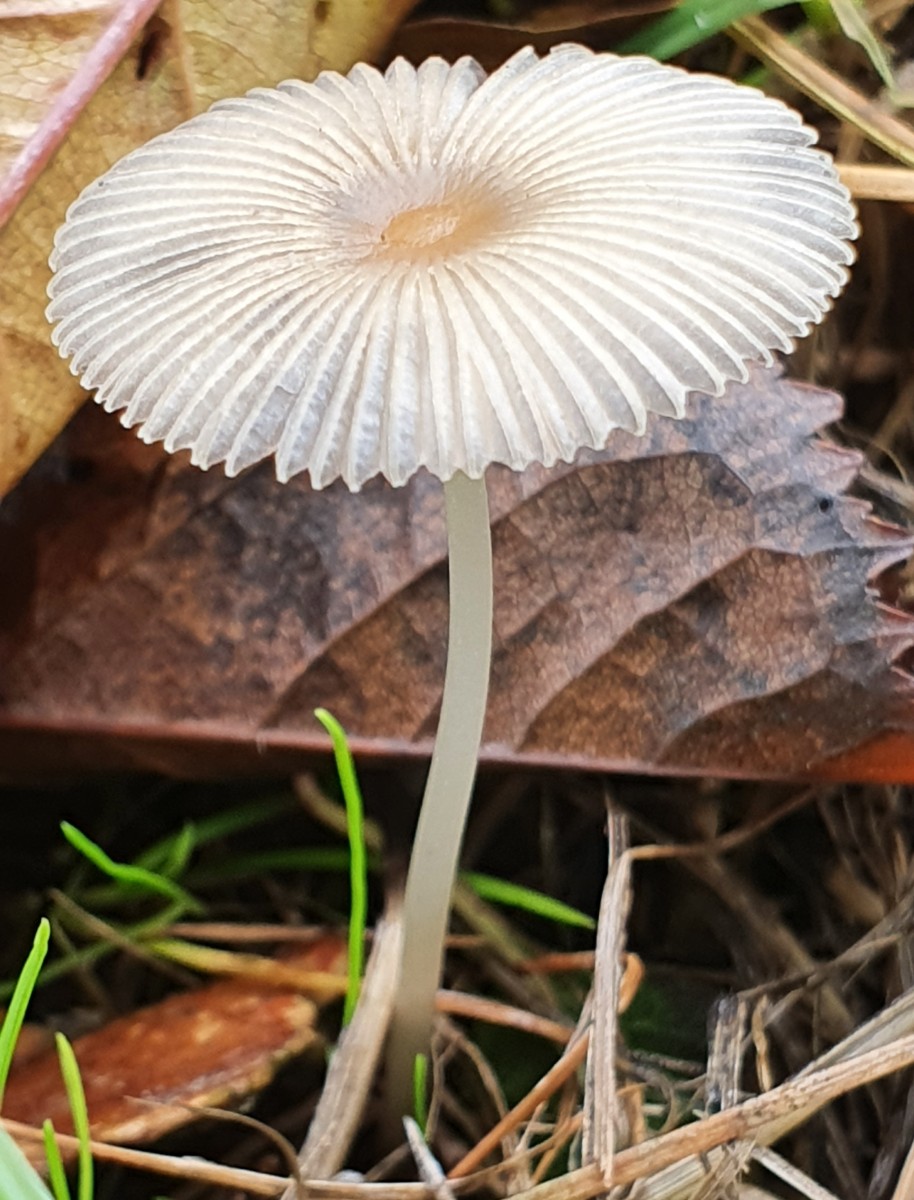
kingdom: Fungi
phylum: Basidiomycota
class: Agaricomycetes
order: Agaricales
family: Psathyrellaceae
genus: Parasola
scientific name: Parasola
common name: hjulhat
